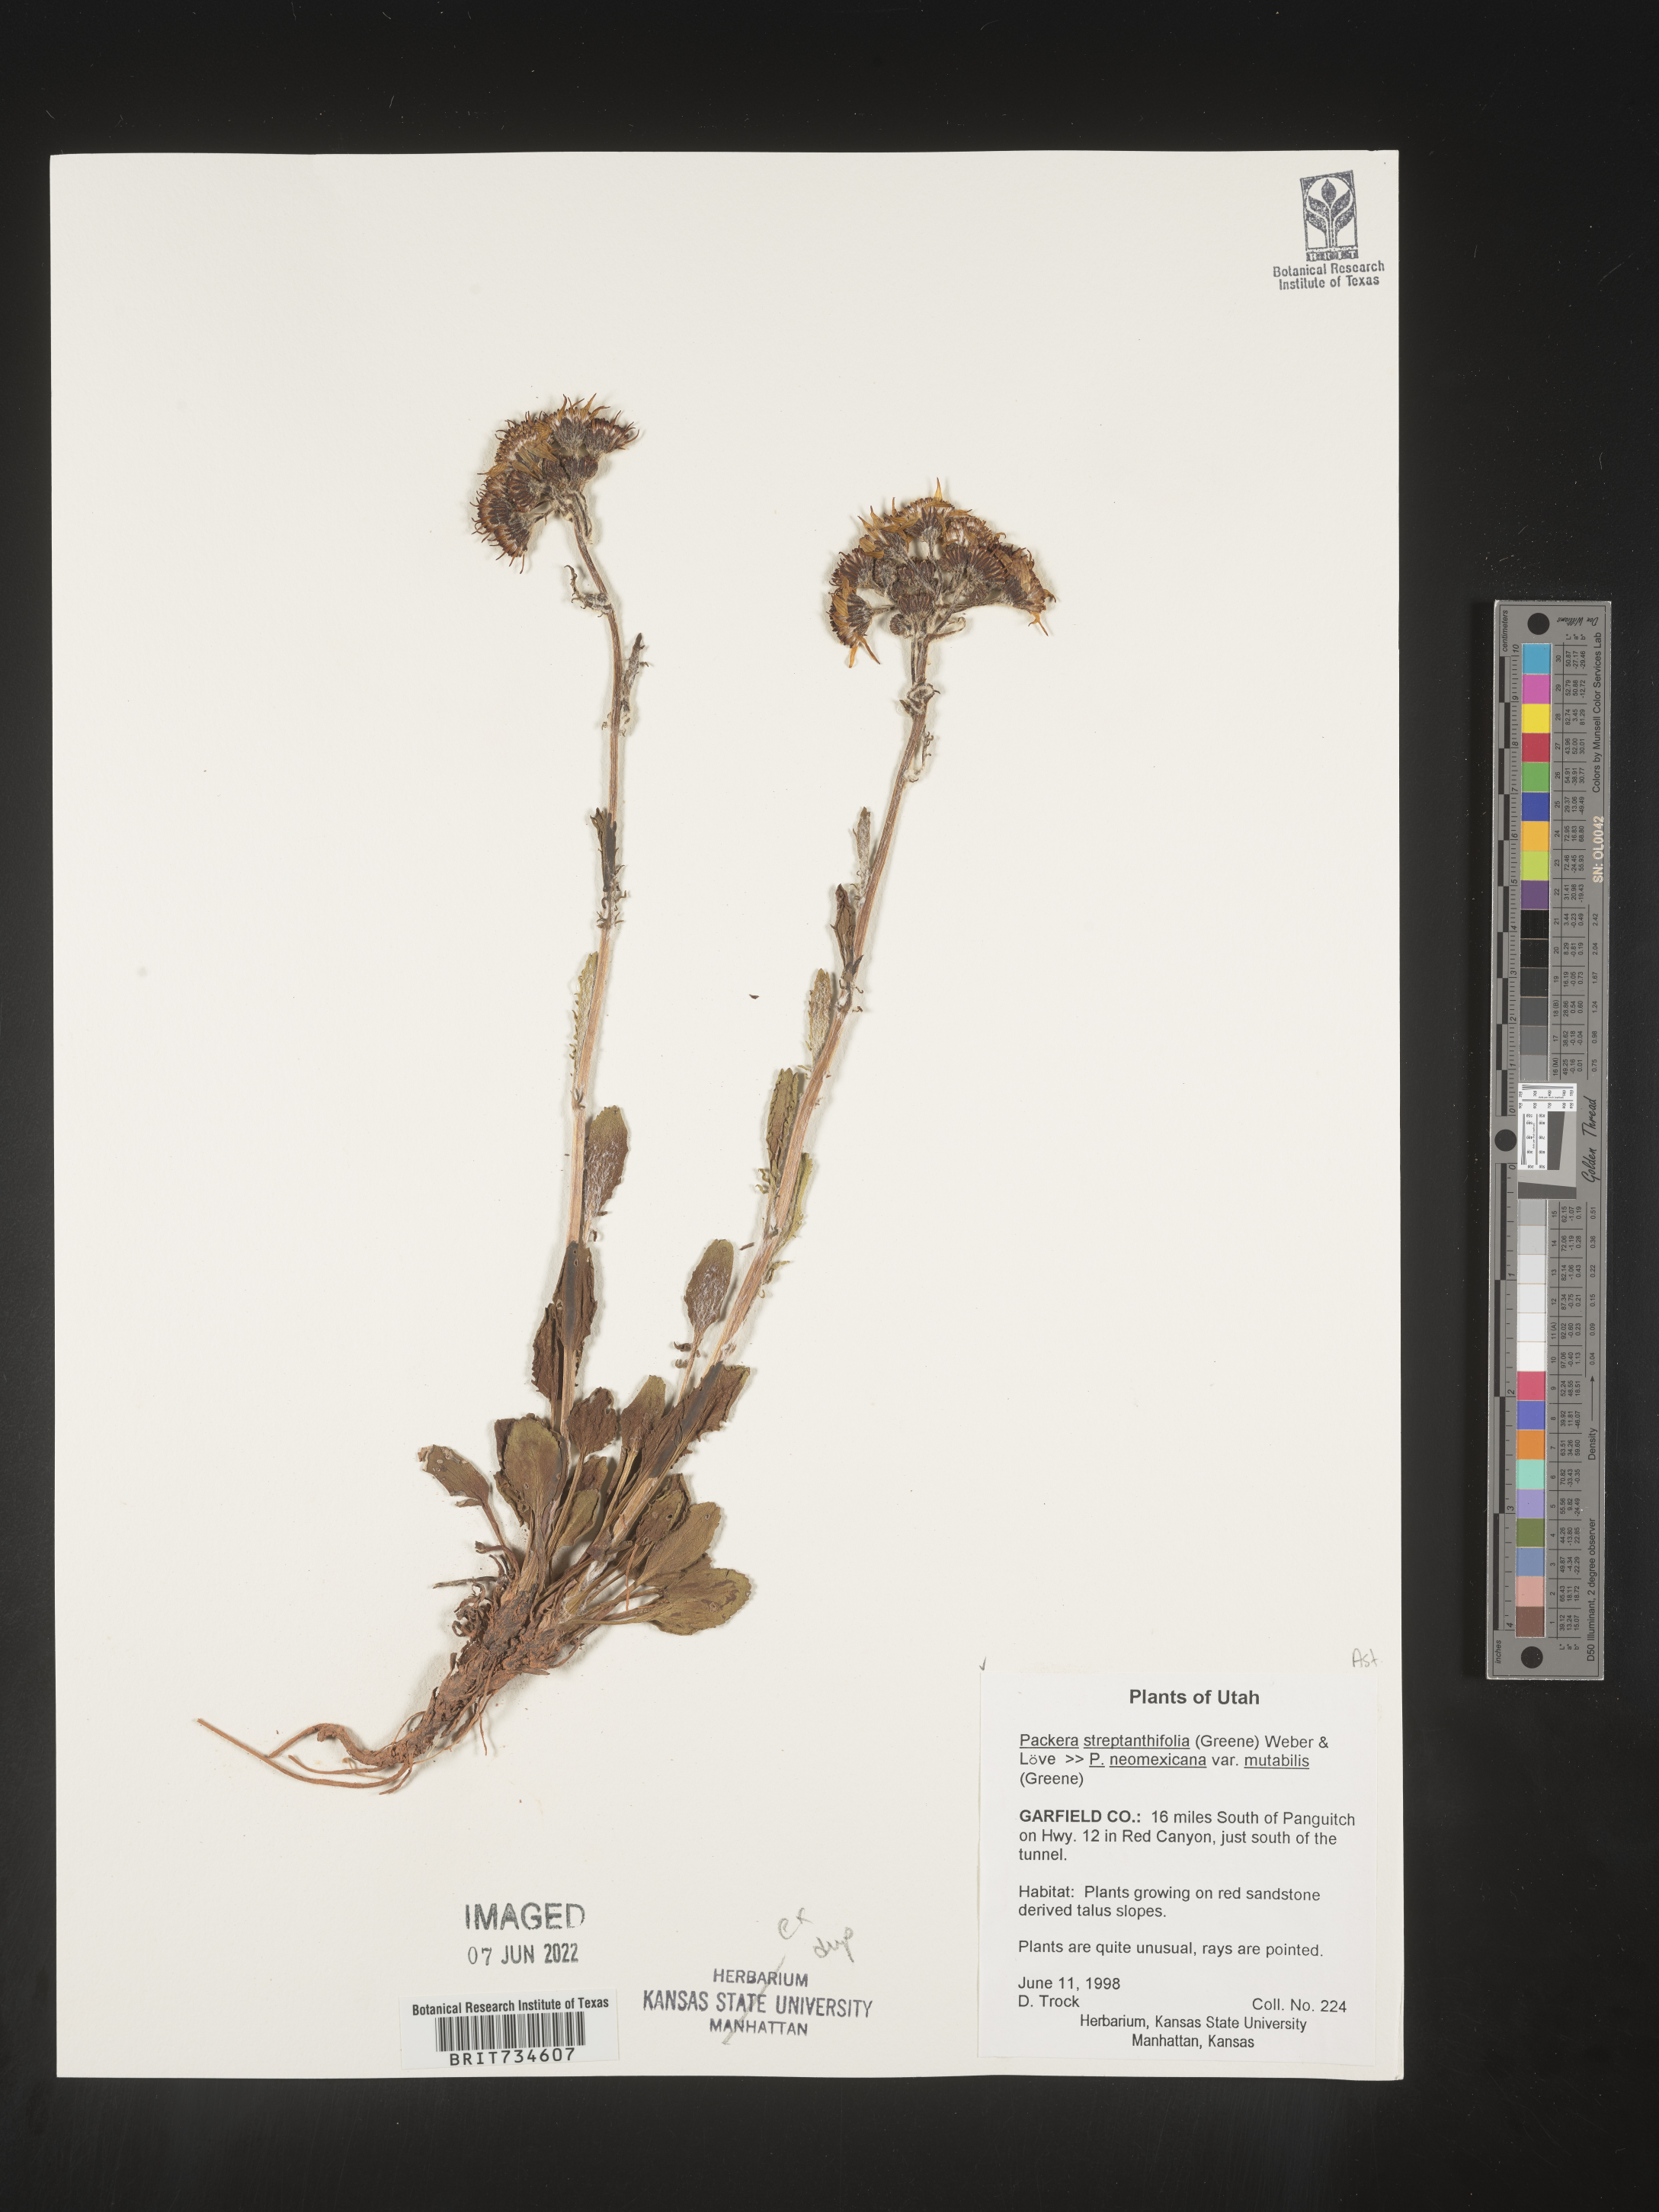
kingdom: Plantae
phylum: Tracheophyta
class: Magnoliopsida
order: Asterales
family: Asteraceae
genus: Packera
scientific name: Packera neomexicana
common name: New mexico butterweed
